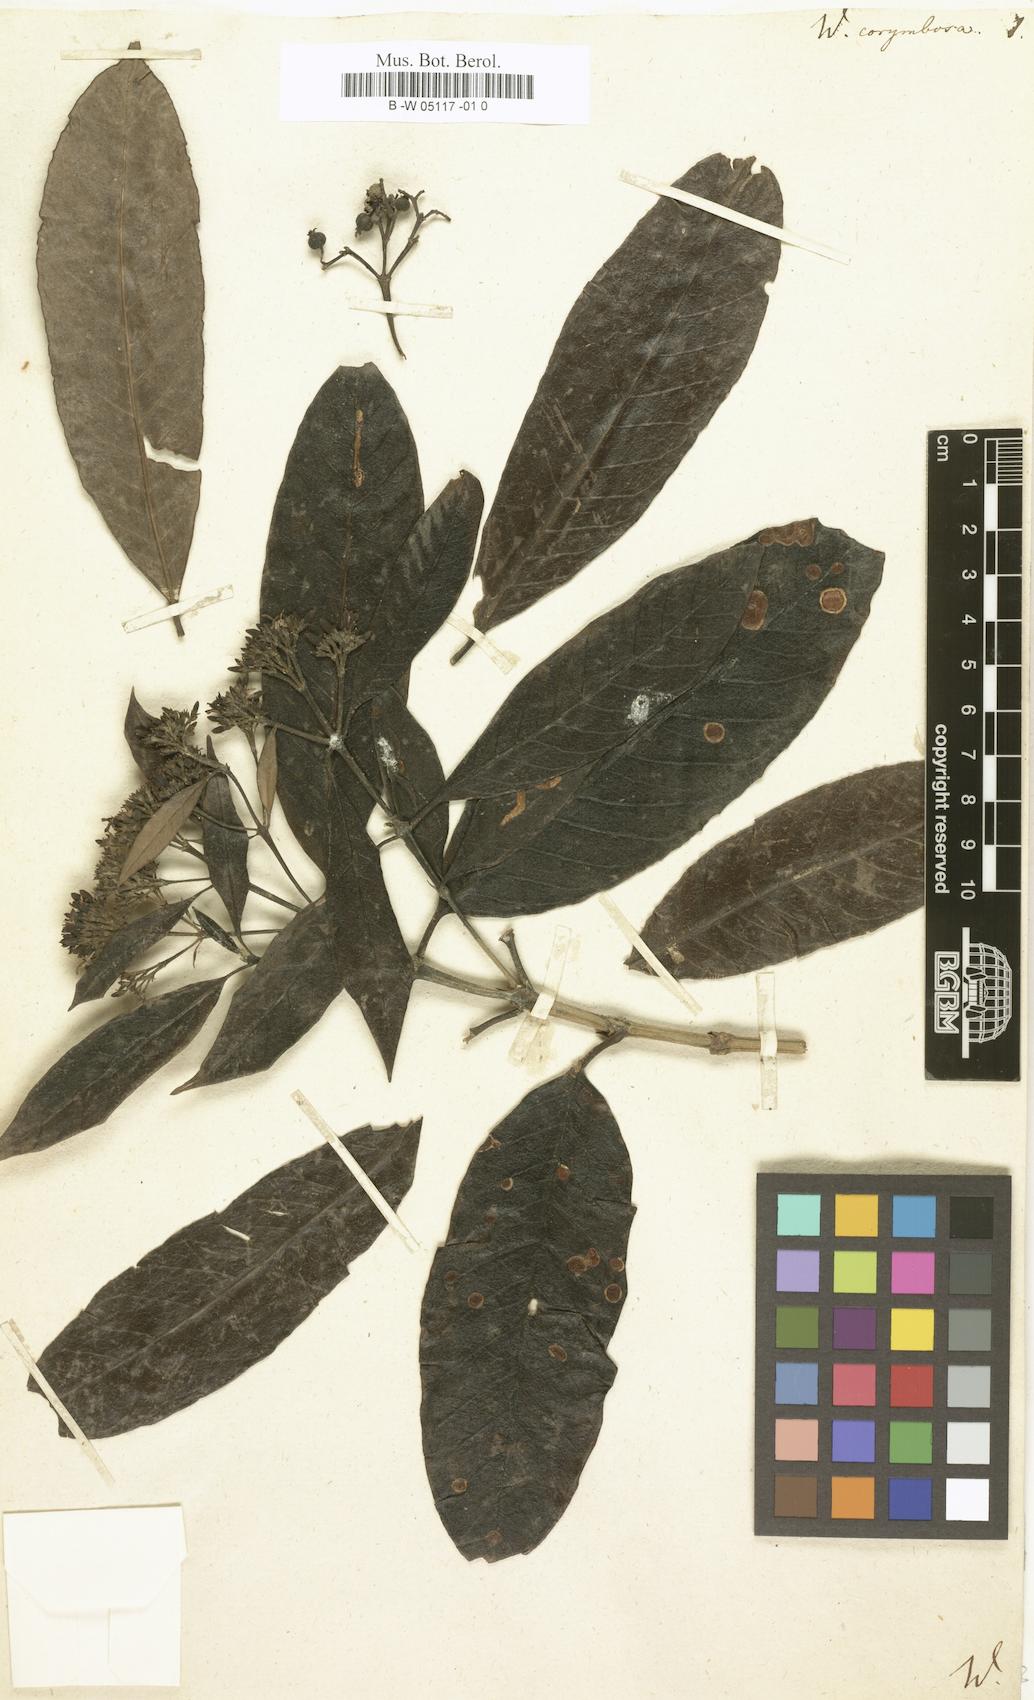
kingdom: Plantae
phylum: Tracheophyta
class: Magnoliopsida
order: Gentianales
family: Rubiaceae
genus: Tarenna
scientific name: Tarenna asiatica
